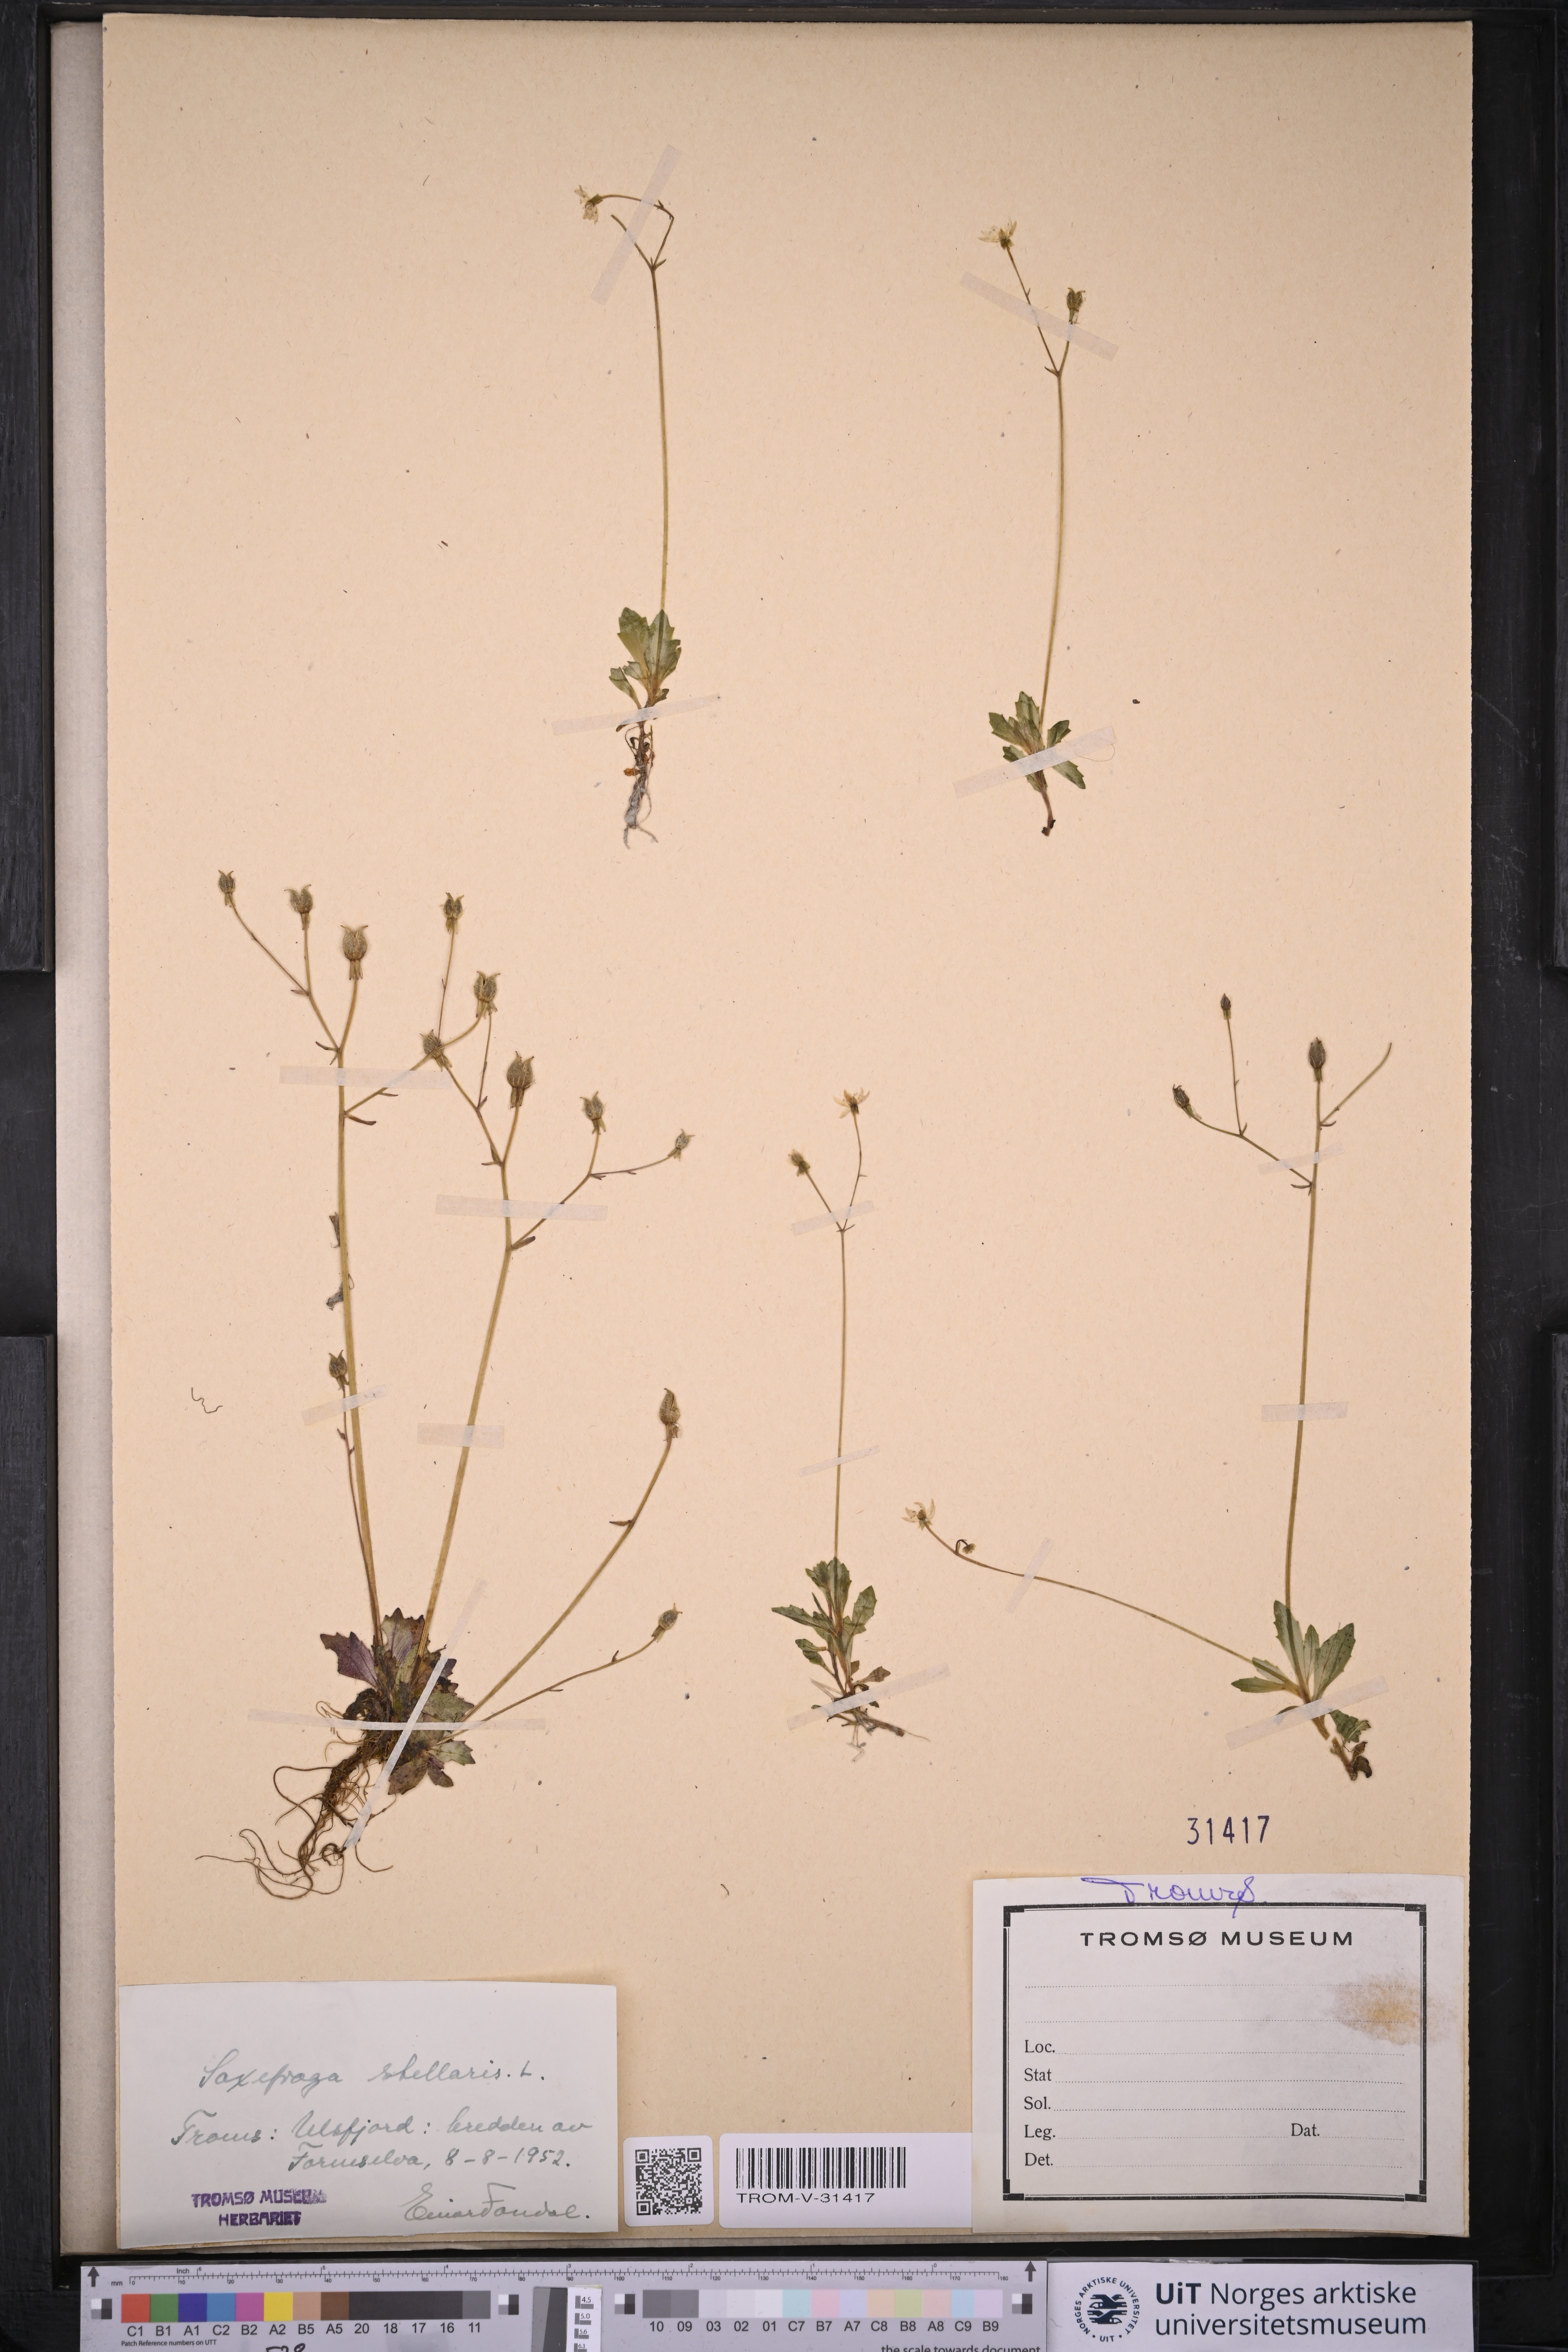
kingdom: Plantae
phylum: Tracheophyta
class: Magnoliopsida
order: Saxifragales
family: Saxifragaceae
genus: Micranthes
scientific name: Micranthes stellaris
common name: Starry saxifrage
